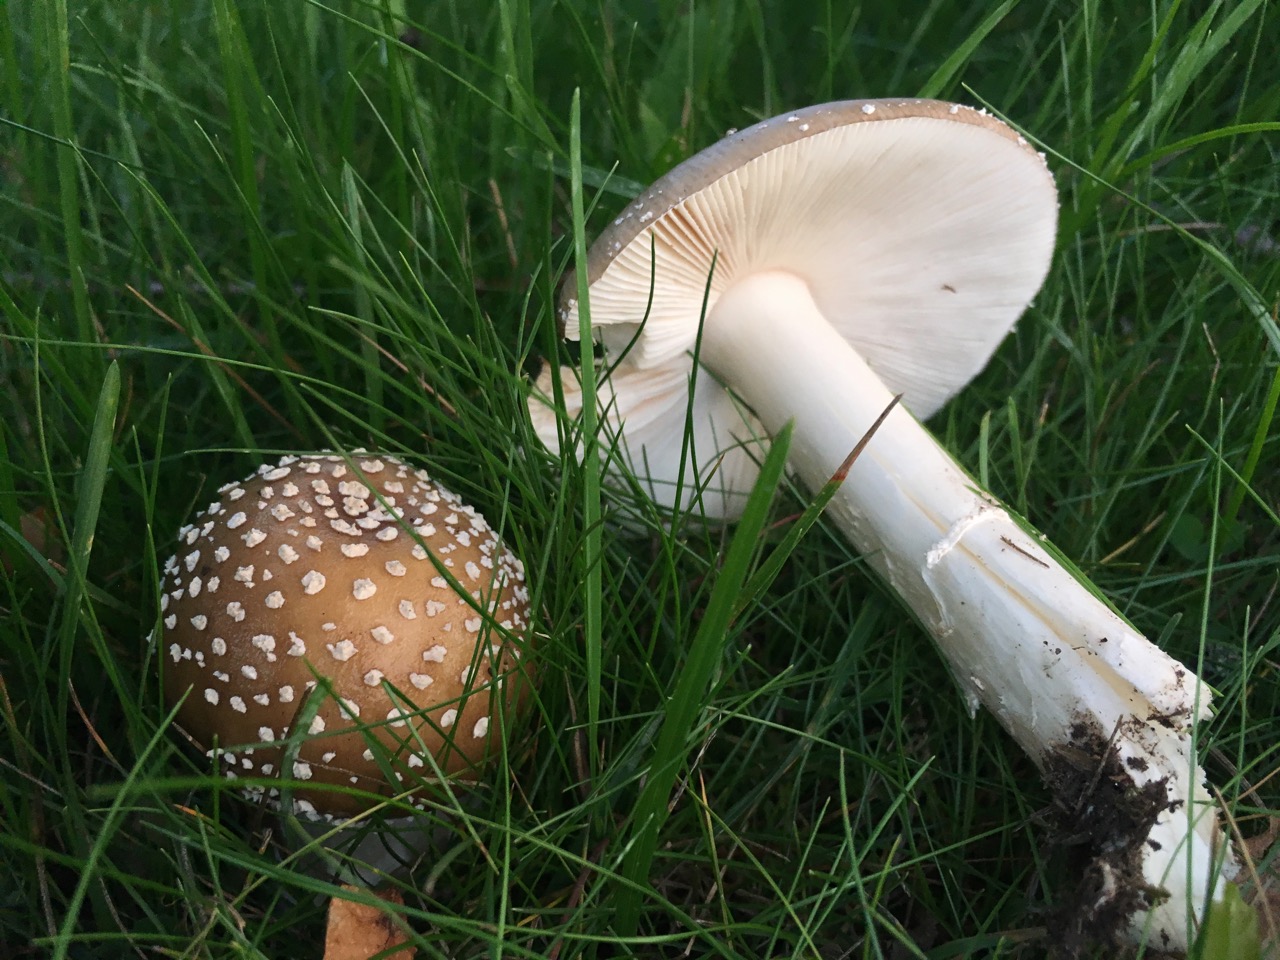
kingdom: Fungi
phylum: Basidiomycota
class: Agaricomycetes
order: Agaricales
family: Amanitaceae
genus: Amanita
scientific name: Amanita pantherina
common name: panter-fluesvamp
